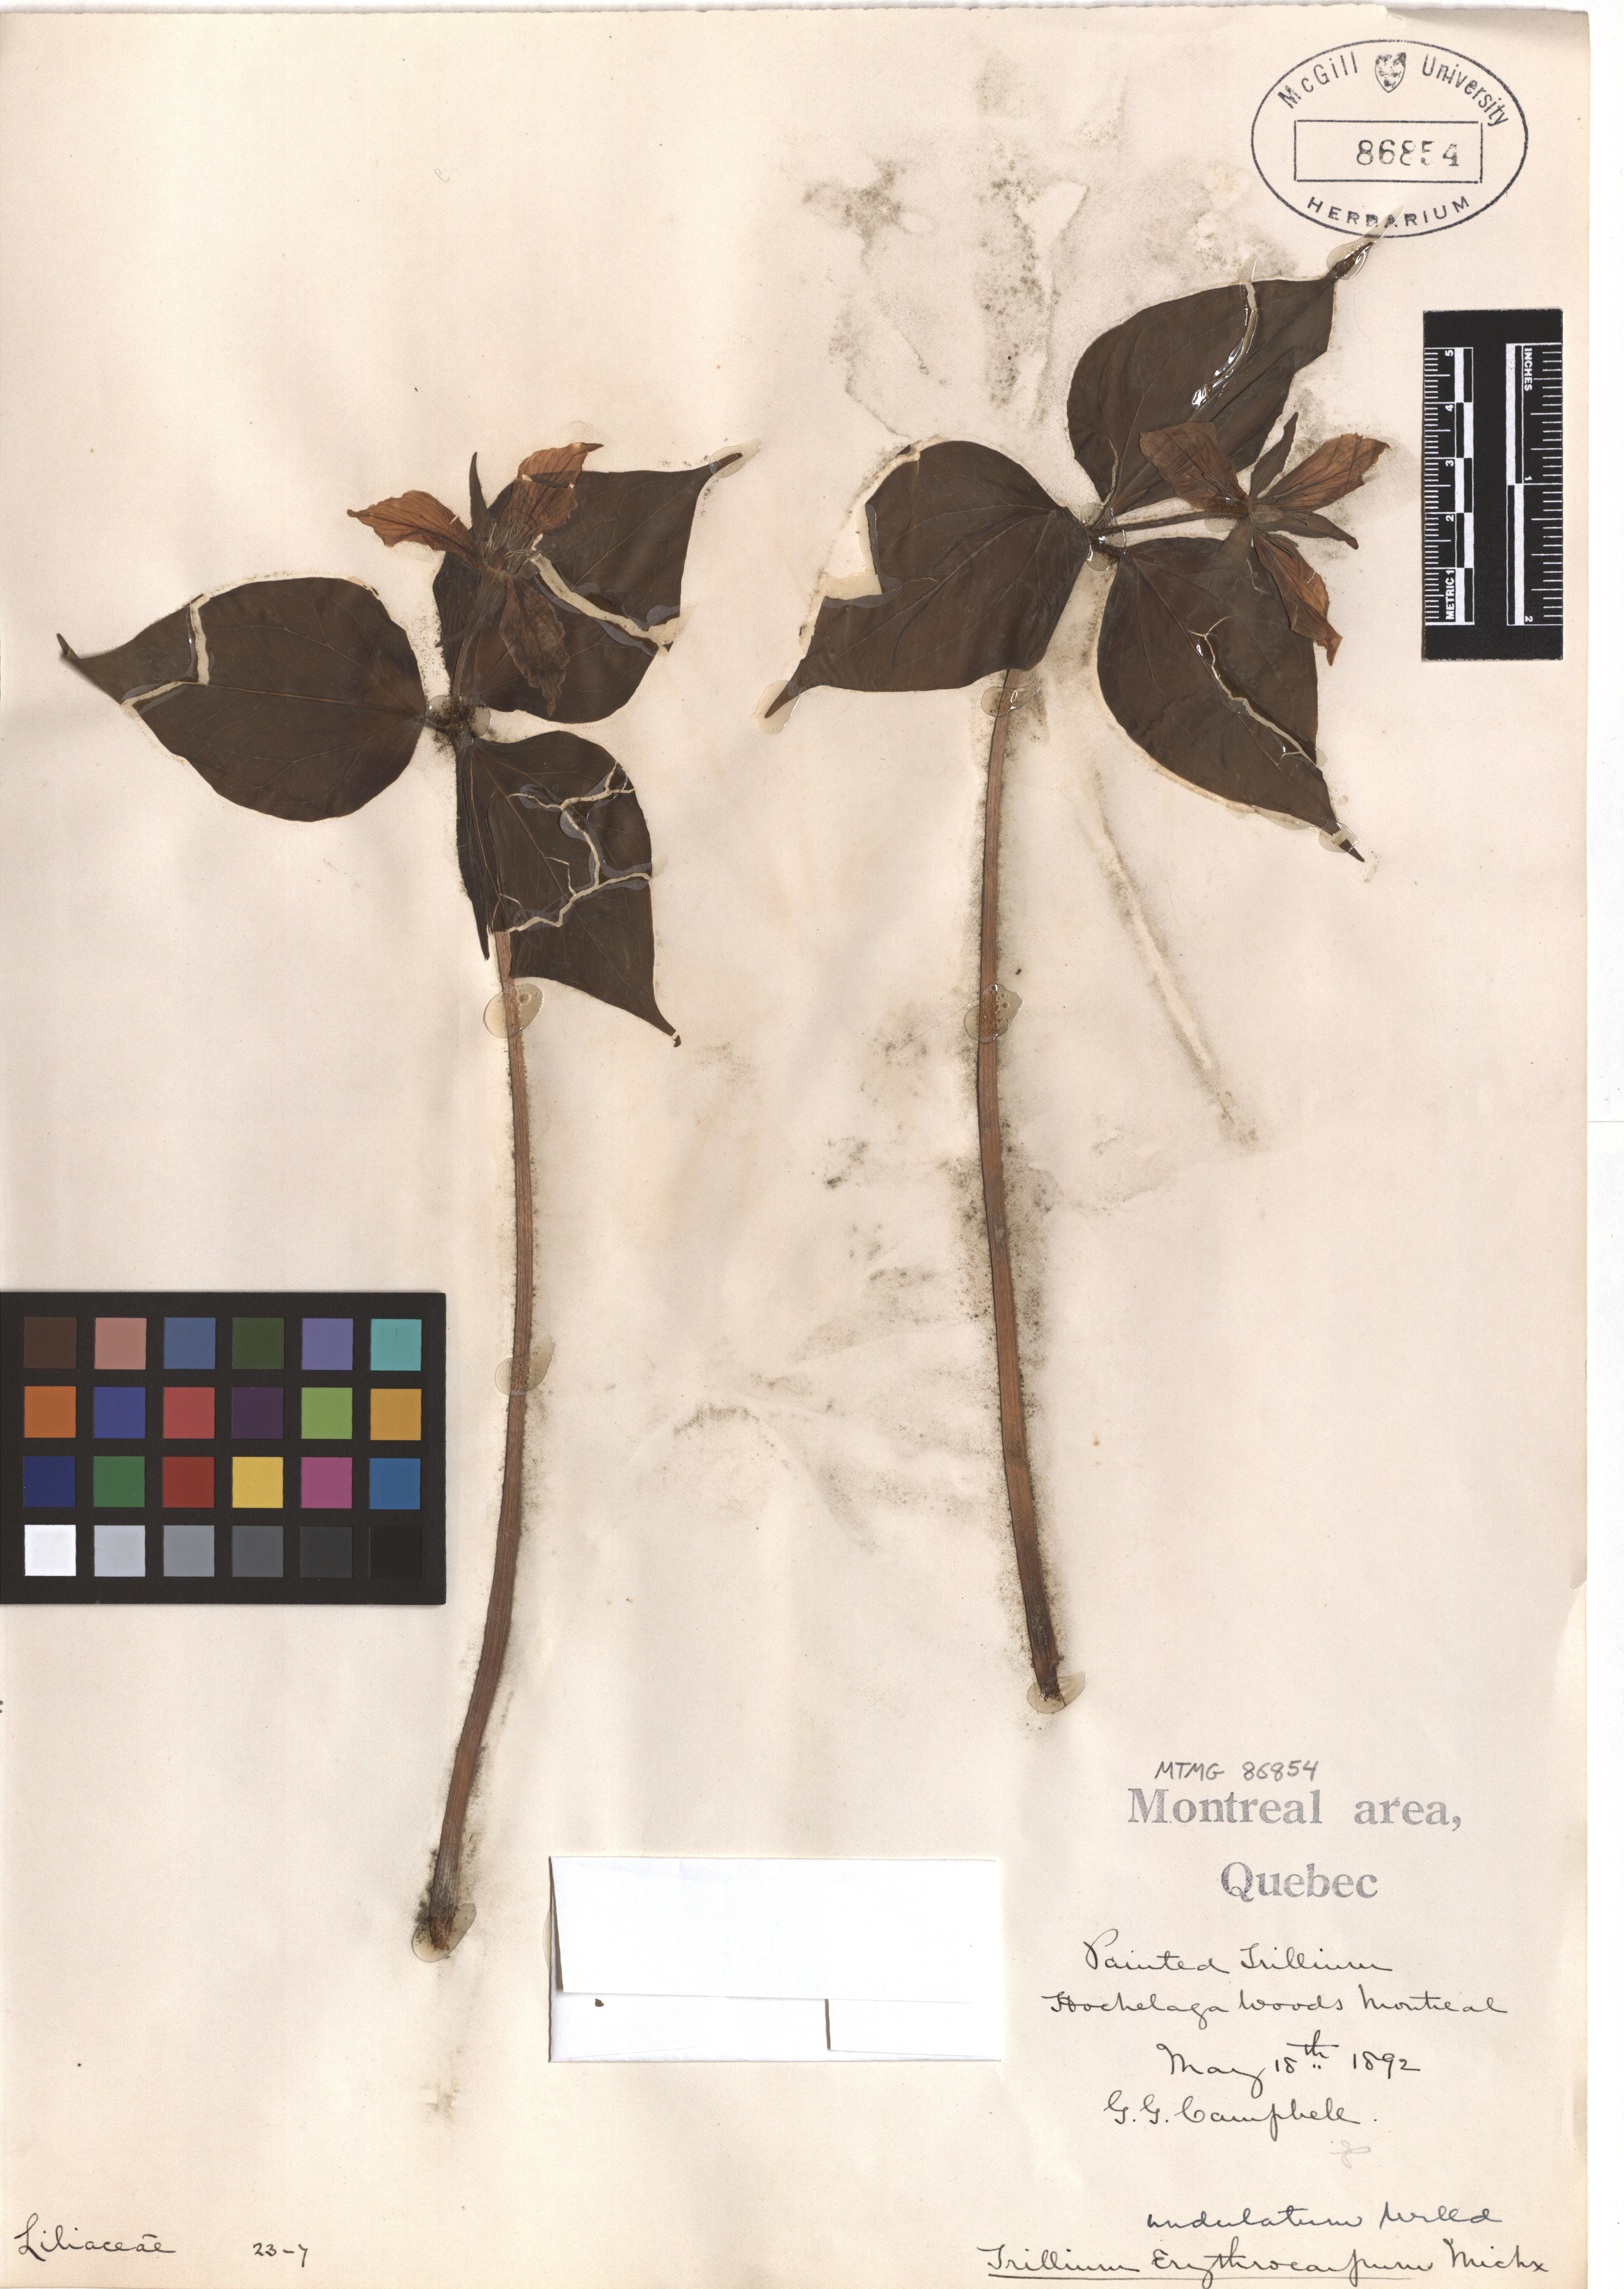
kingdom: Plantae
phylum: Tracheophyta
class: Liliopsida
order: Liliales
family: Melanthiaceae
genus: Trillium
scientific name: Trillium undulatum
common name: Paint trillium
